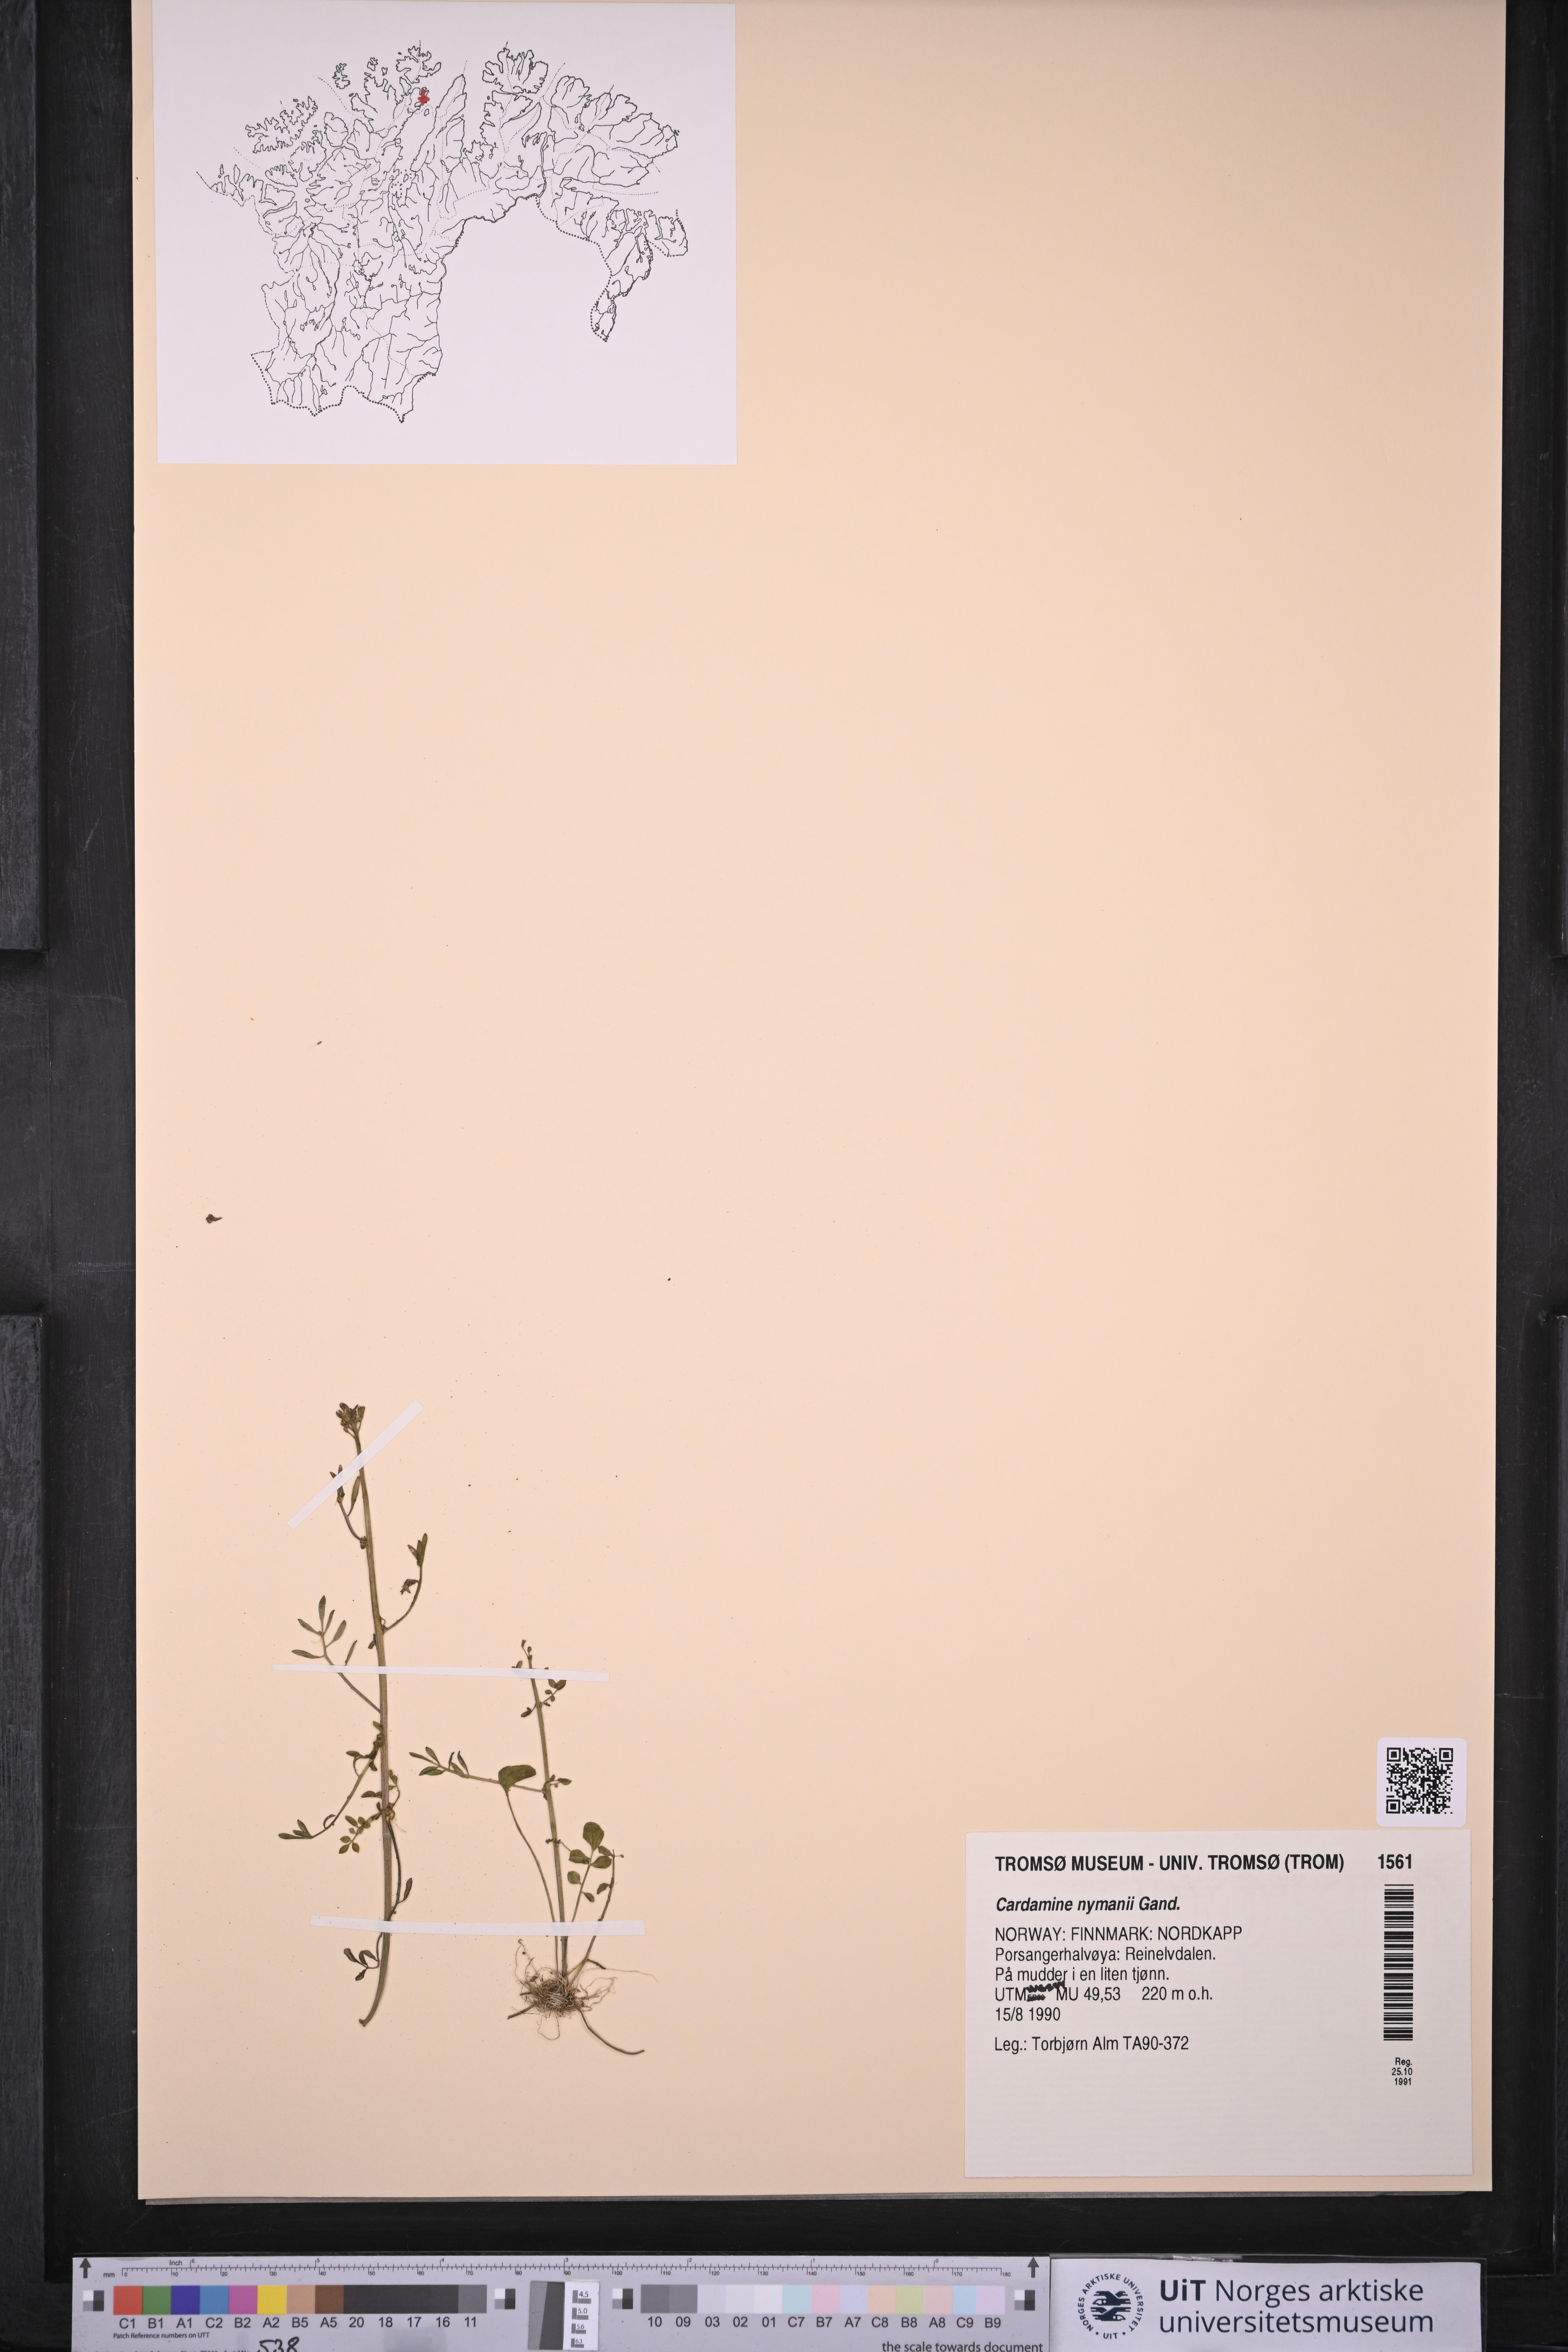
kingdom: Plantae
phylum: Tracheophyta
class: Magnoliopsida
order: Brassicales
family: Brassicaceae
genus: Cardamine
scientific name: Cardamine nymanii
